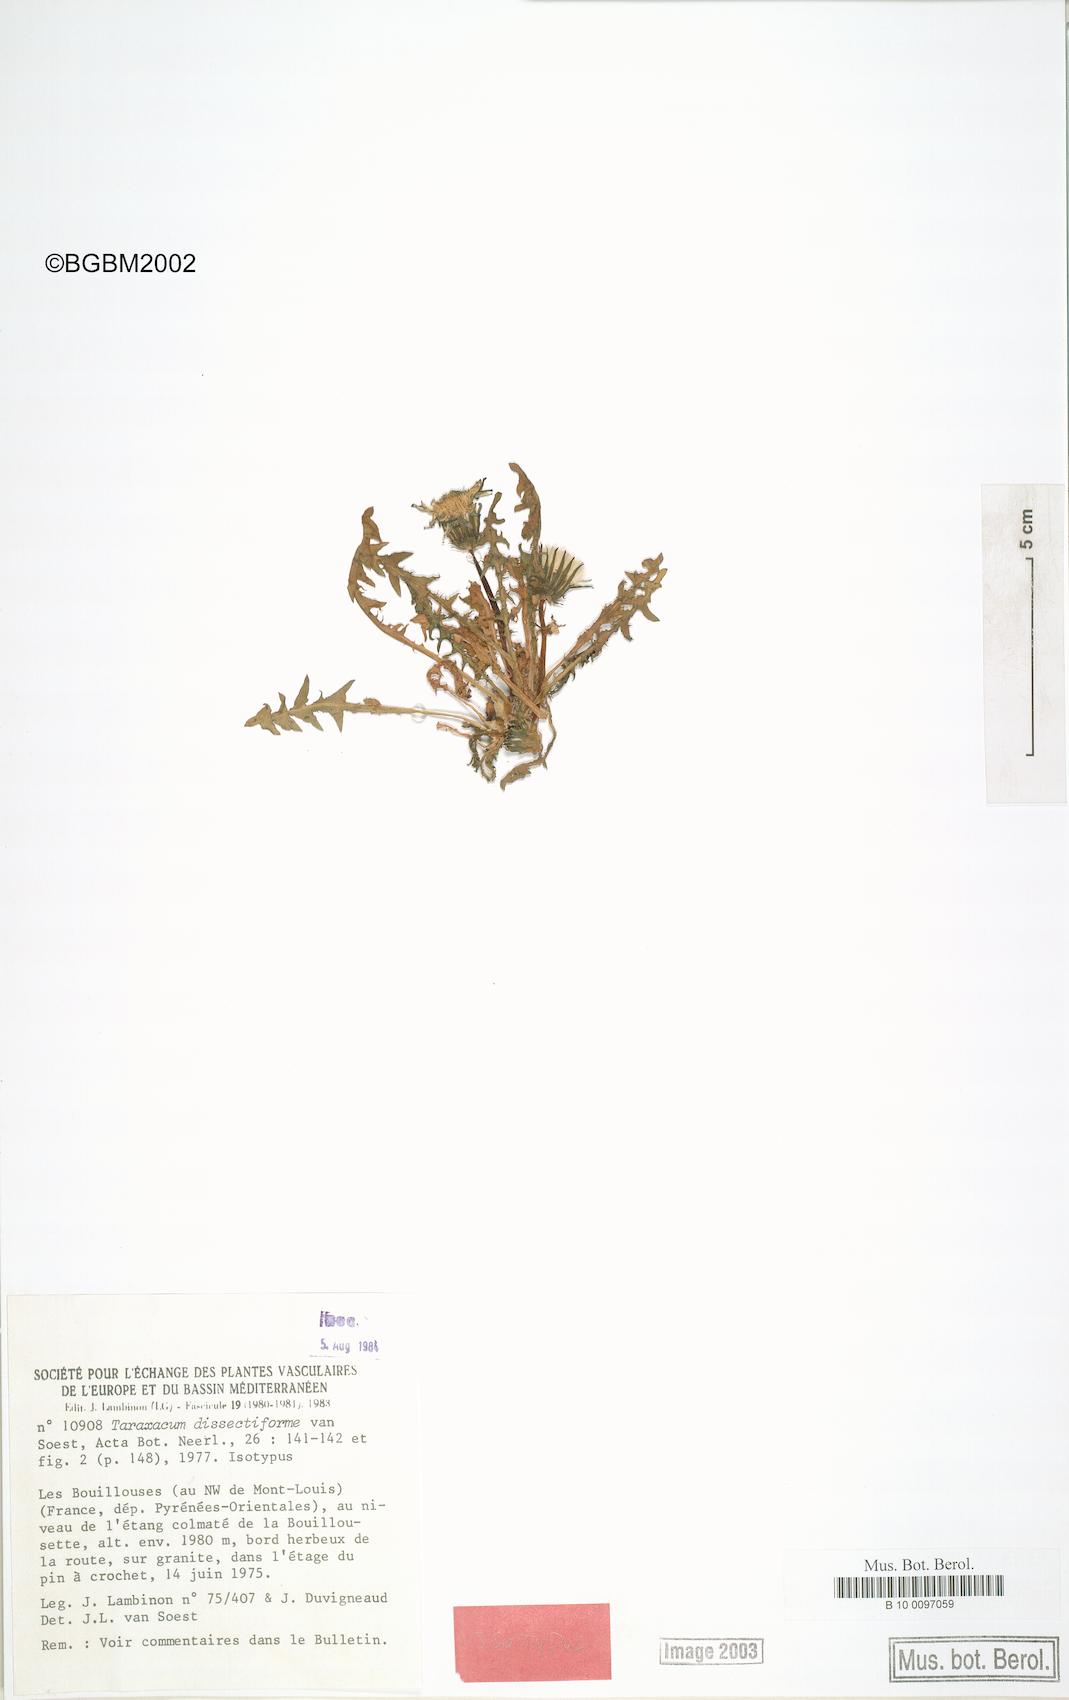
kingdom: Plantae
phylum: Tracheophyta
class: Magnoliopsida
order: Asterales
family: Asteraceae
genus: Taraxacum
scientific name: Taraxacum dissectiforme
